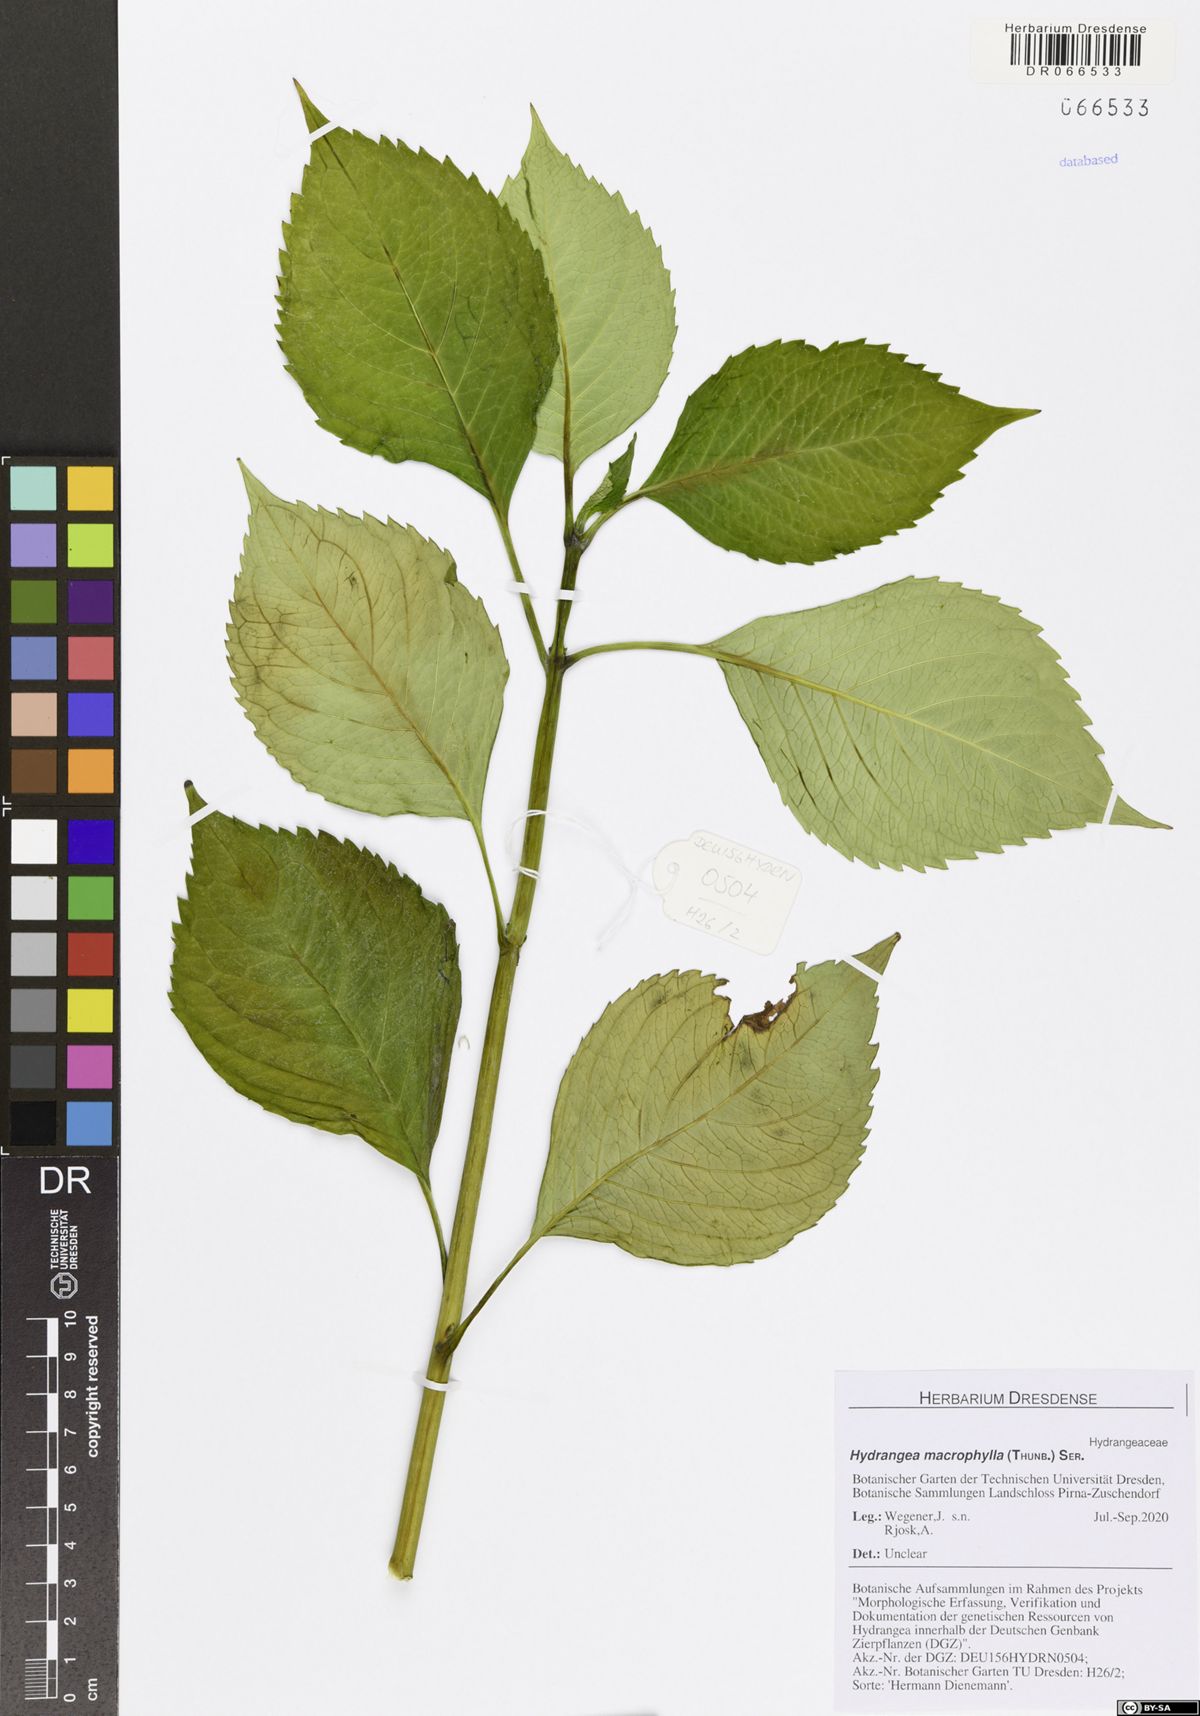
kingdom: Plantae
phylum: Tracheophyta
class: Magnoliopsida
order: Cornales
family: Hydrangeaceae
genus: Hydrangea
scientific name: Hydrangea macrophylla
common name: Hydrangea
